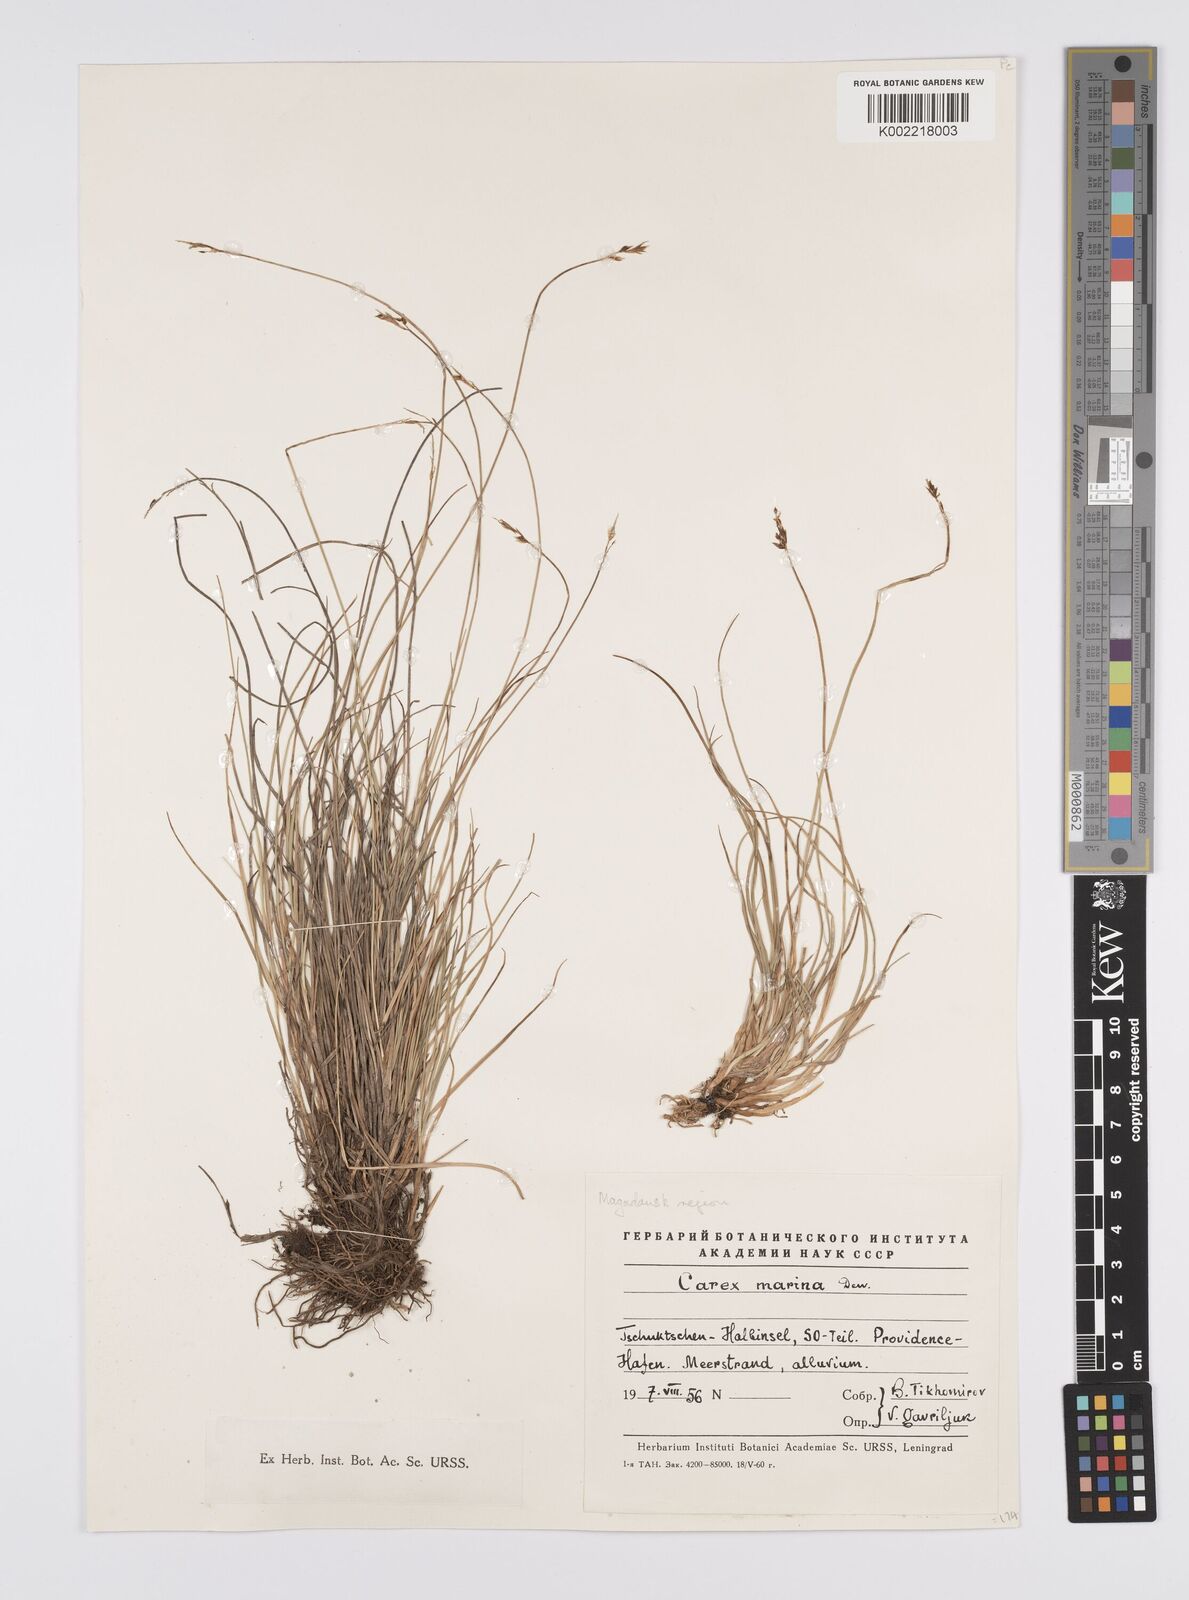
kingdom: Plantae
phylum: Tracheophyta
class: Liliopsida
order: Poales
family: Cyperaceae
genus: Carex
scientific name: Carex heleonastes
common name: Hudson bay sedge
